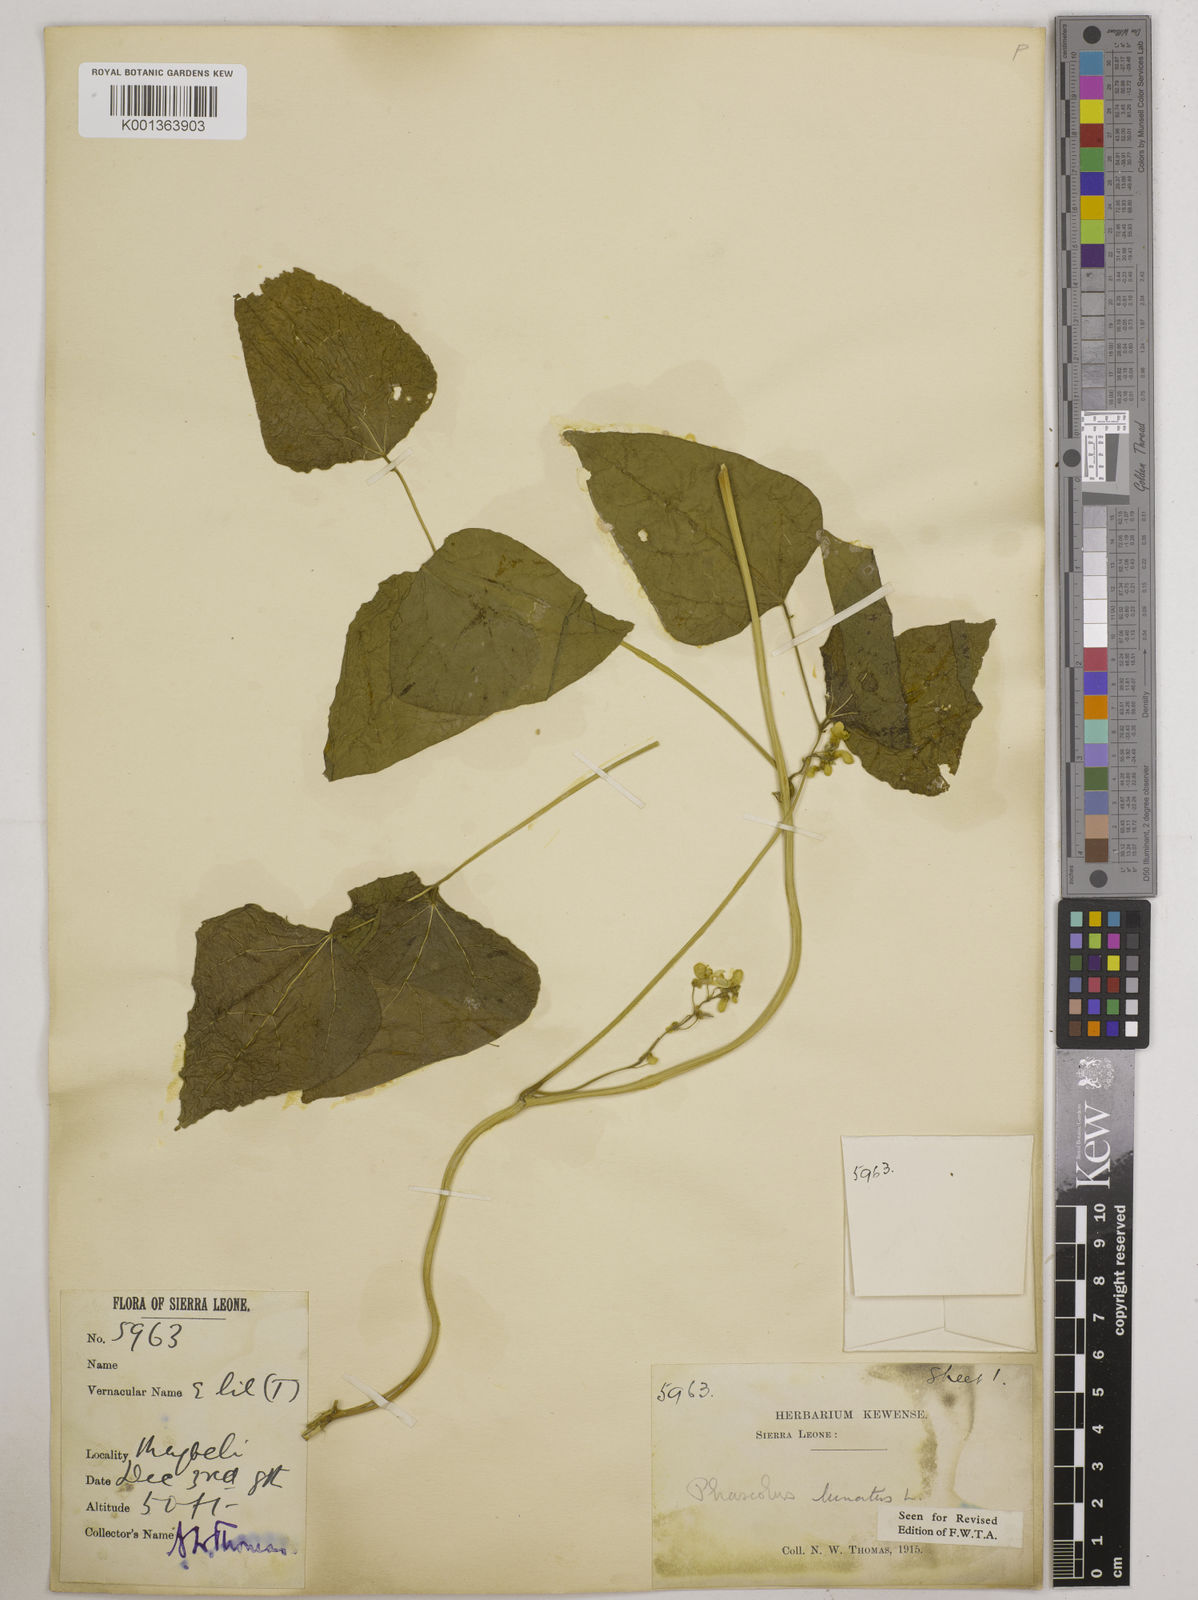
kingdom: Plantae
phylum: Tracheophyta
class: Magnoliopsida
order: Fabales
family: Fabaceae
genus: Phaseolus
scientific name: Phaseolus lunatus
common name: Sieva bean
